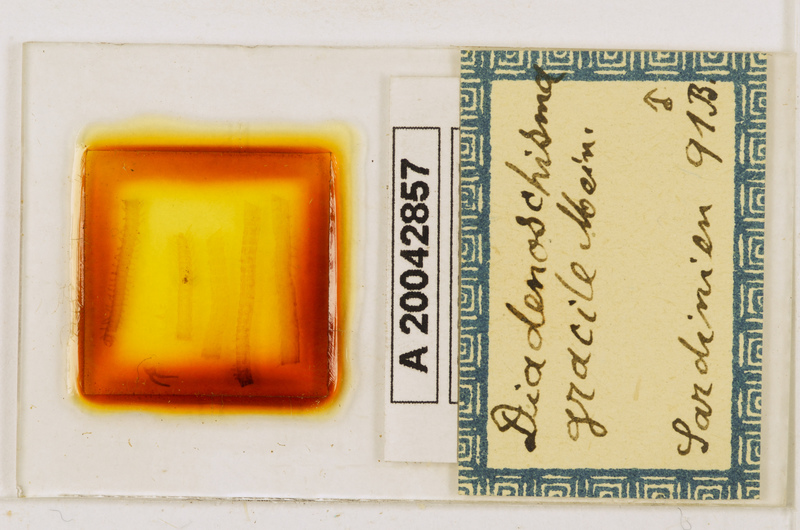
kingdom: Animalia
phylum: Arthropoda
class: Chilopoda
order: Geophilomorpha
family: Himantariidae
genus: Stigmatogaster
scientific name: Stigmatogaster
